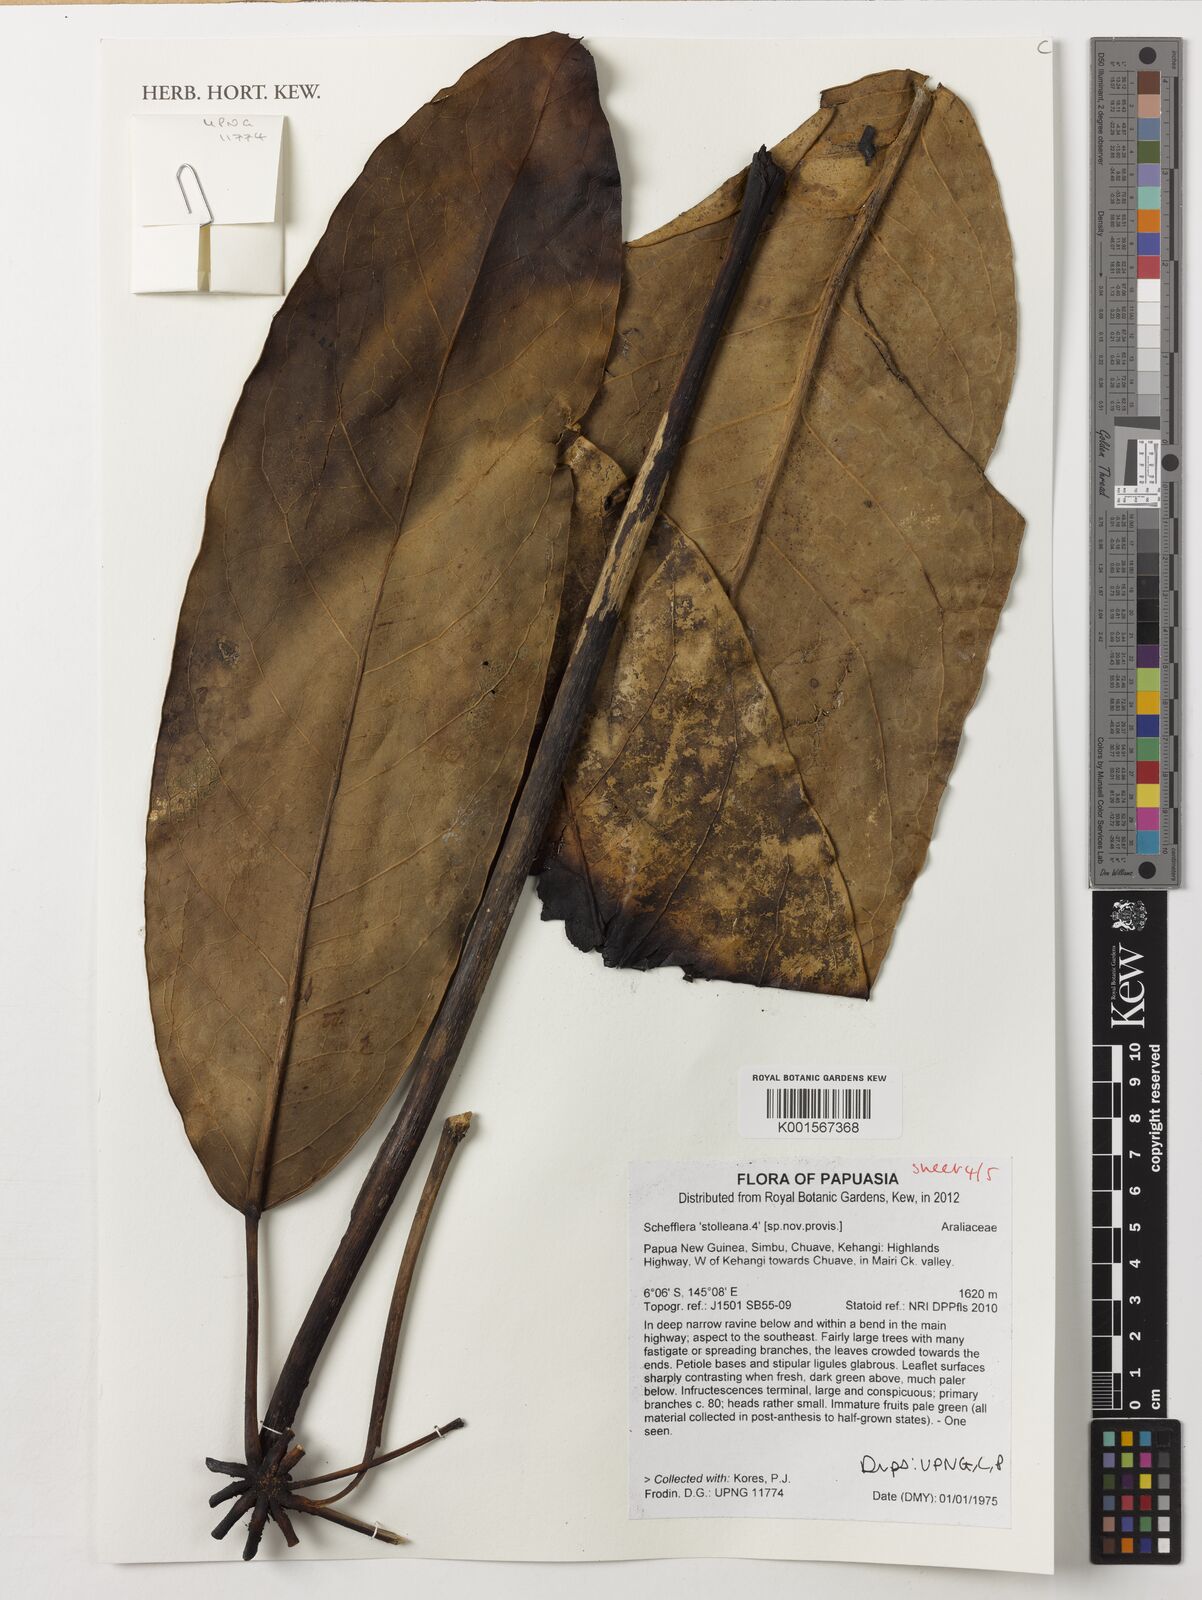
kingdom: Plantae
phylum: Tracheophyta
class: Magnoliopsida
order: Apiales
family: Araliaceae
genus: Heptapleurum
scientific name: Heptapleurum stolleanum
